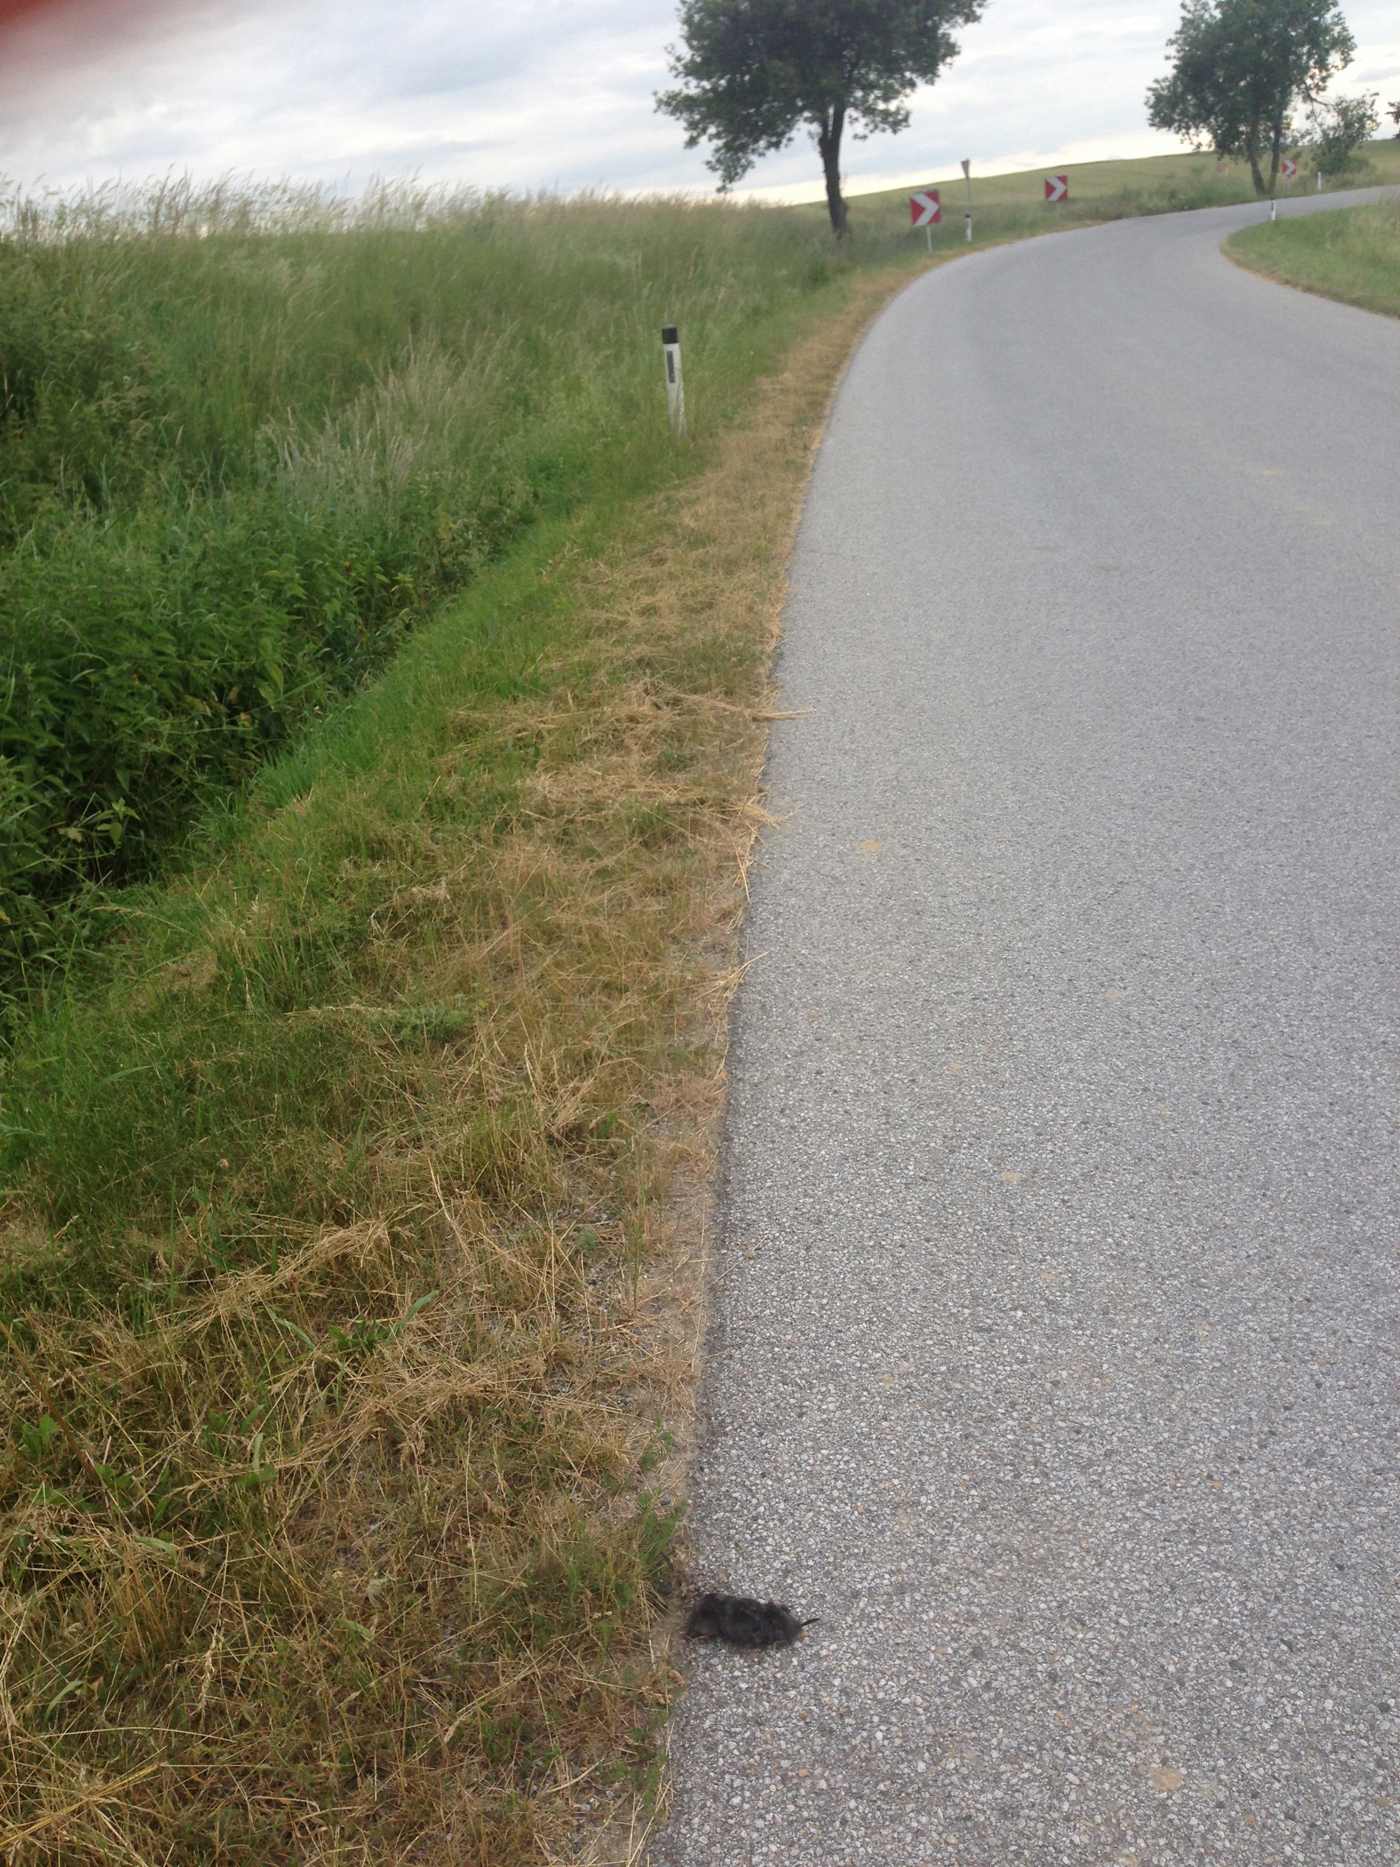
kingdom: Animalia
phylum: Chordata
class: Mammalia
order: Soricomorpha
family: Talpidae
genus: Talpa
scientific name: Talpa europaea
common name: European mole
